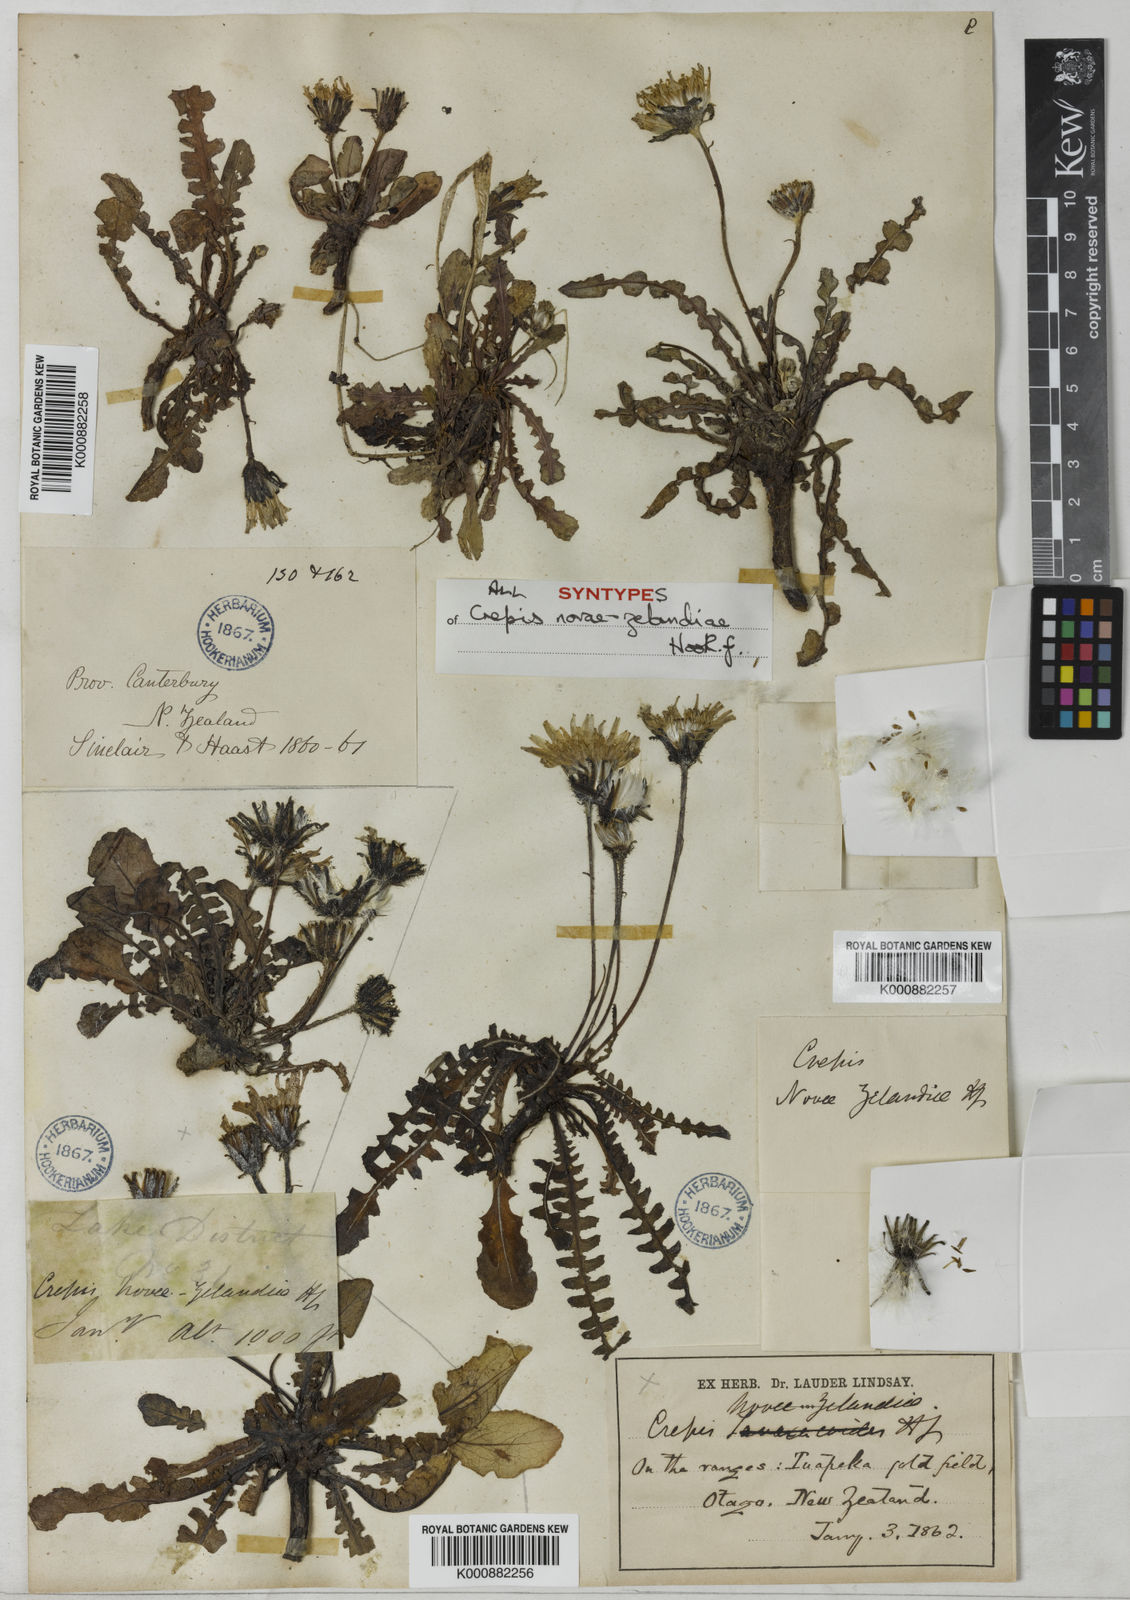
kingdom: Plantae
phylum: Tracheophyta
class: Magnoliopsida
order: Asterales
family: Asteraceae
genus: Sonchus
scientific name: Sonchus novae-zelandiae
